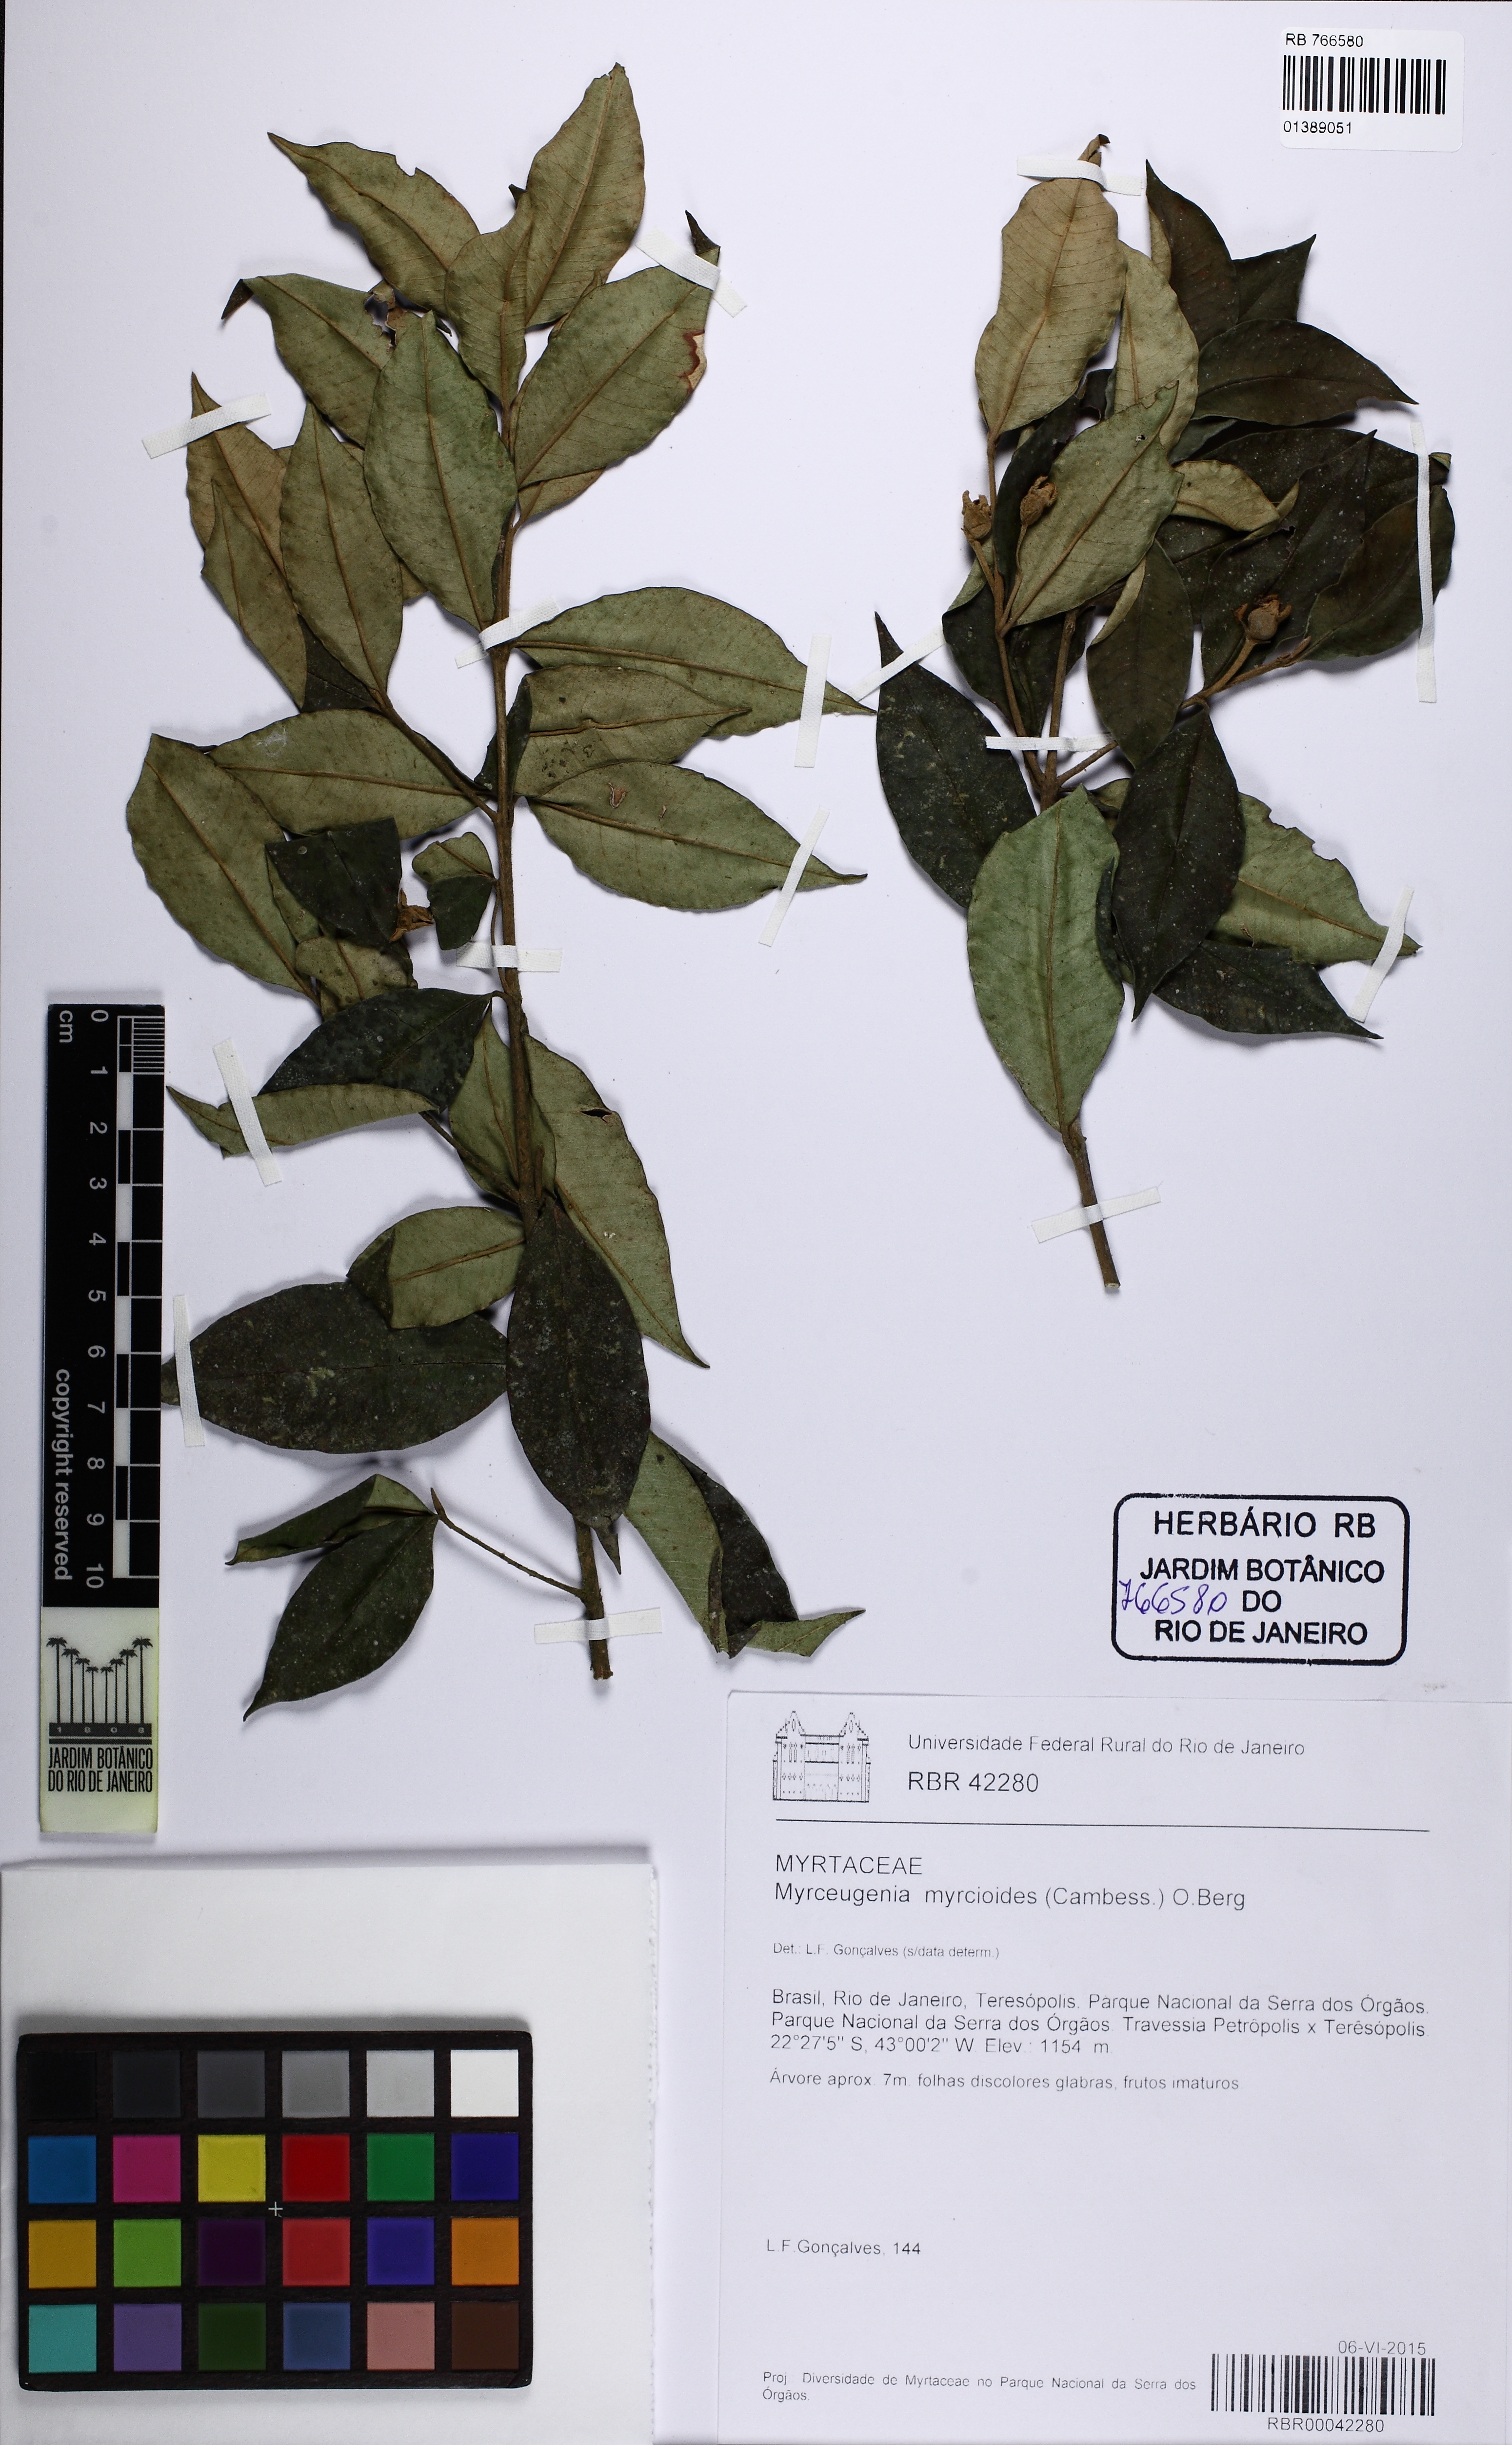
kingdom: Plantae
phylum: Tracheophyta
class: Magnoliopsida
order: Myrtales
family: Myrtaceae
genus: Myrceugenia
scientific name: Myrceugenia myrcioides
